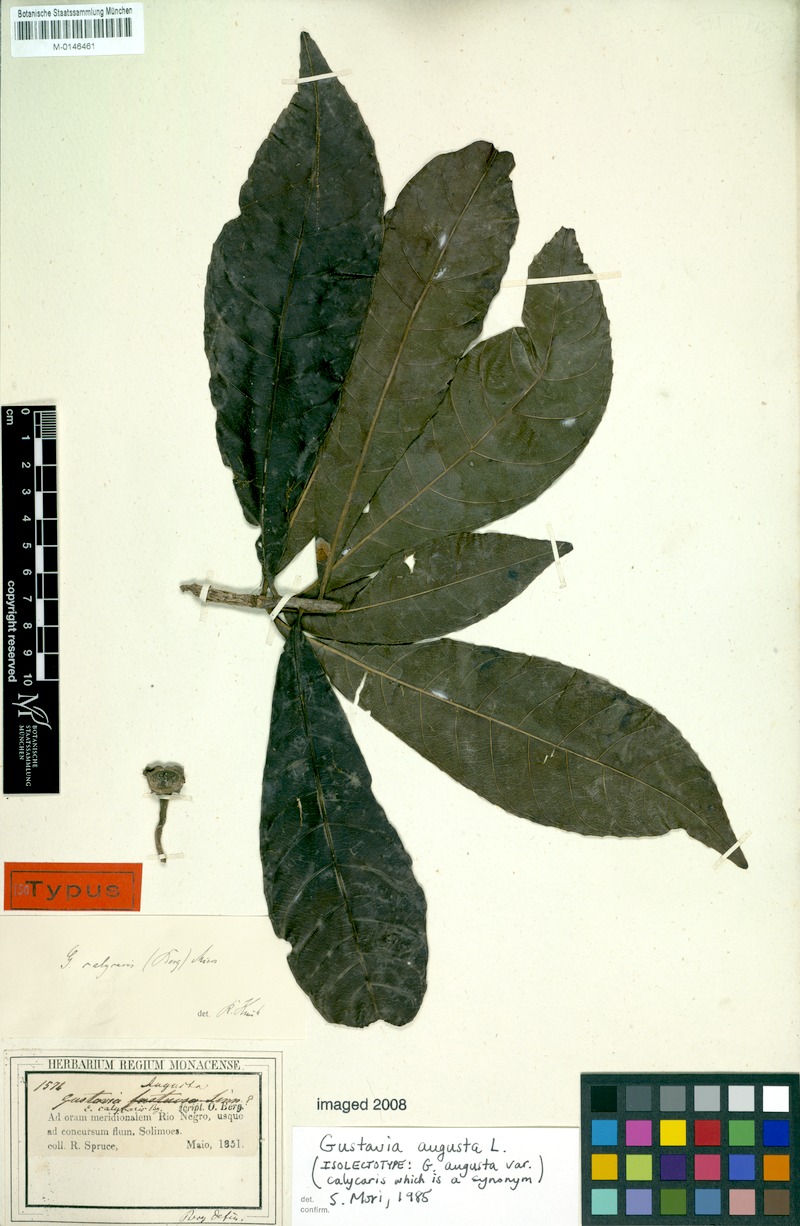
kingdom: Plantae
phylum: Tracheophyta
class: Magnoliopsida
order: Ericales
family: Lecythidaceae
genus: Gustavia
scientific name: Gustavia augusta
